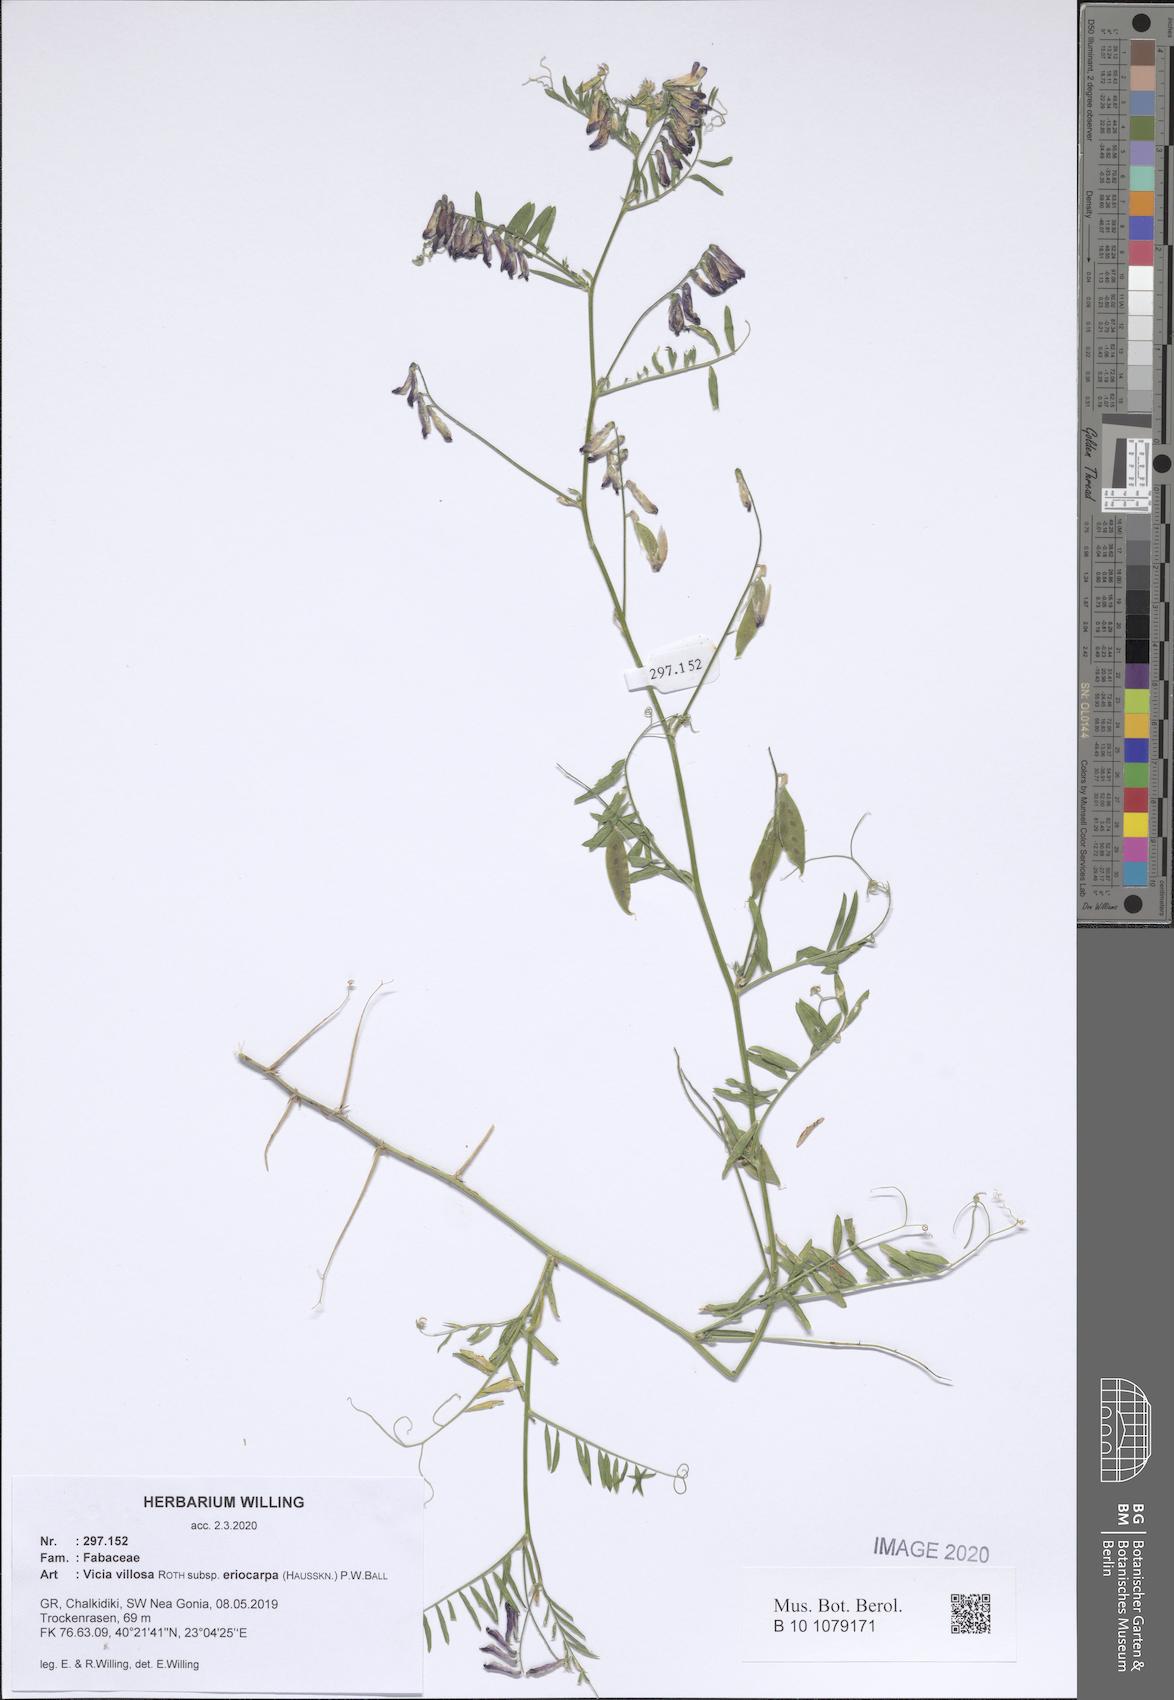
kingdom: Plantae
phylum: Tracheophyta
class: Magnoliopsida
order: Fabales
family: Fabaceae
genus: Vicia
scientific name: Vicia eriocarpa
